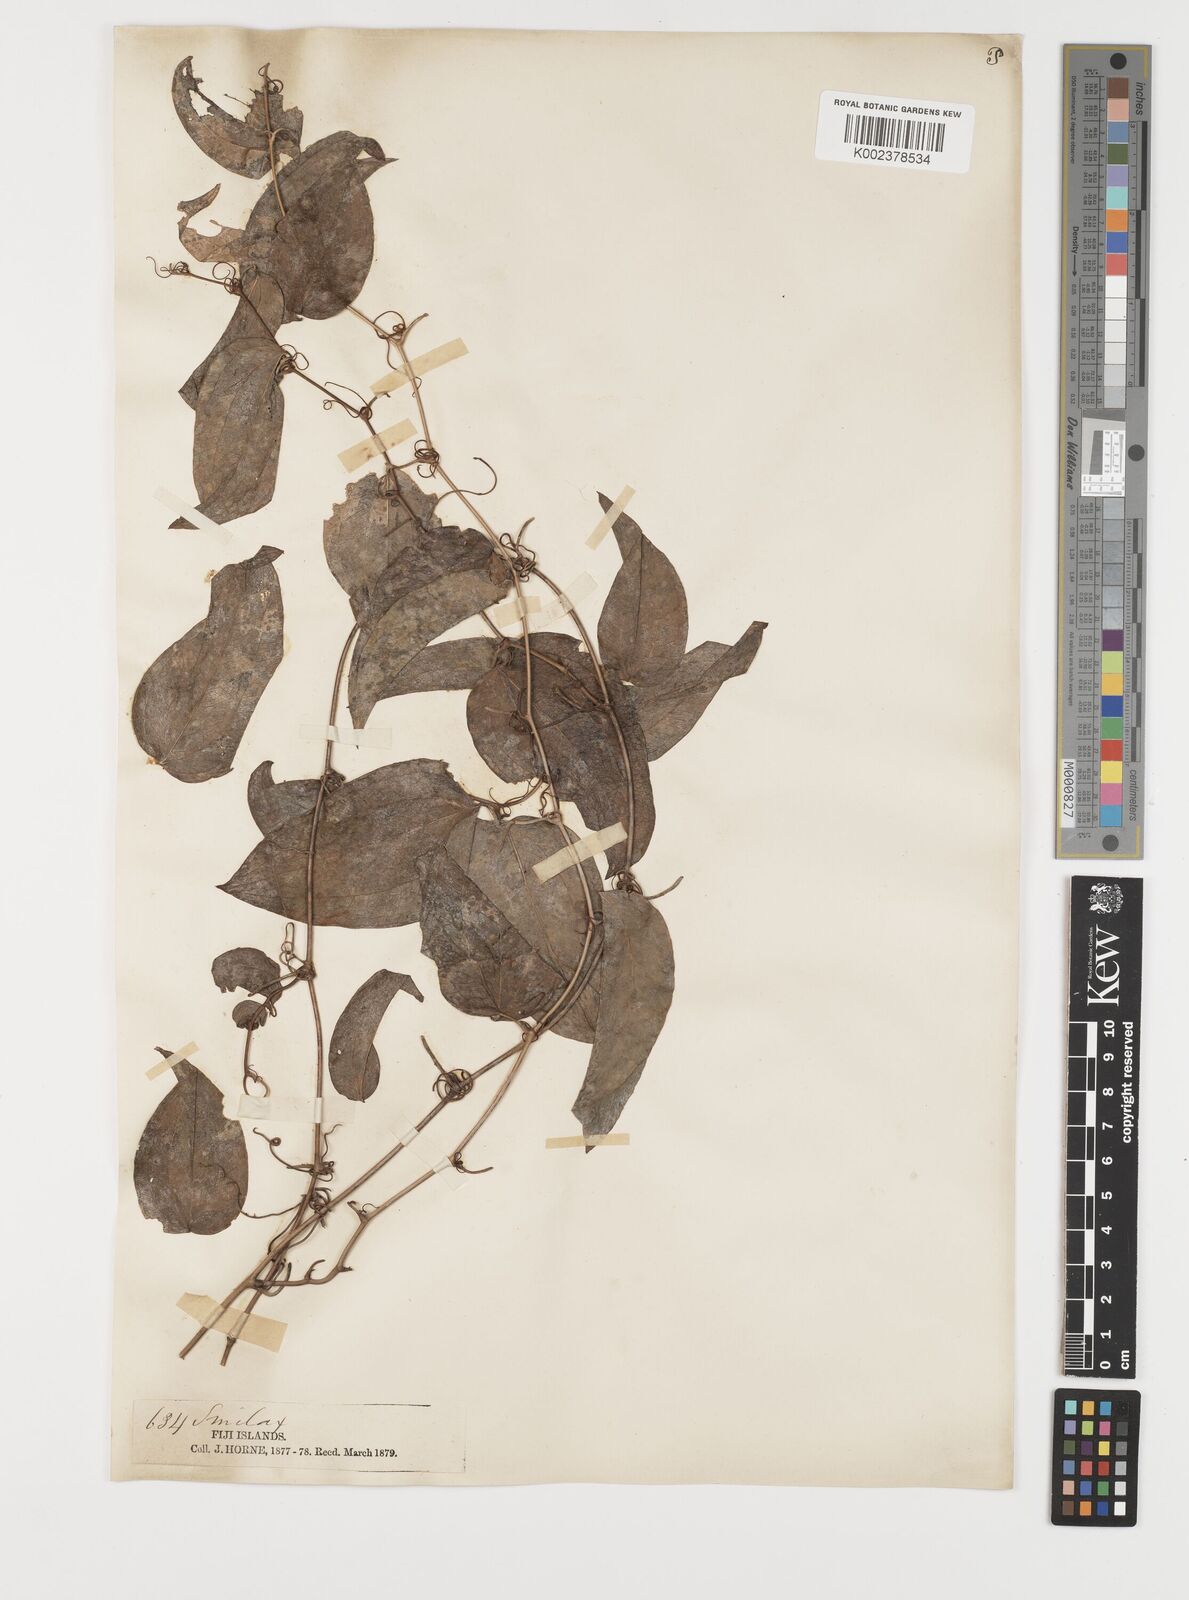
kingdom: Plantae
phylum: Tracheophyta
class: Liliopsida
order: Liliales
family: Smilacaceae
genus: Smilax
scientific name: Smilax vitiensis
